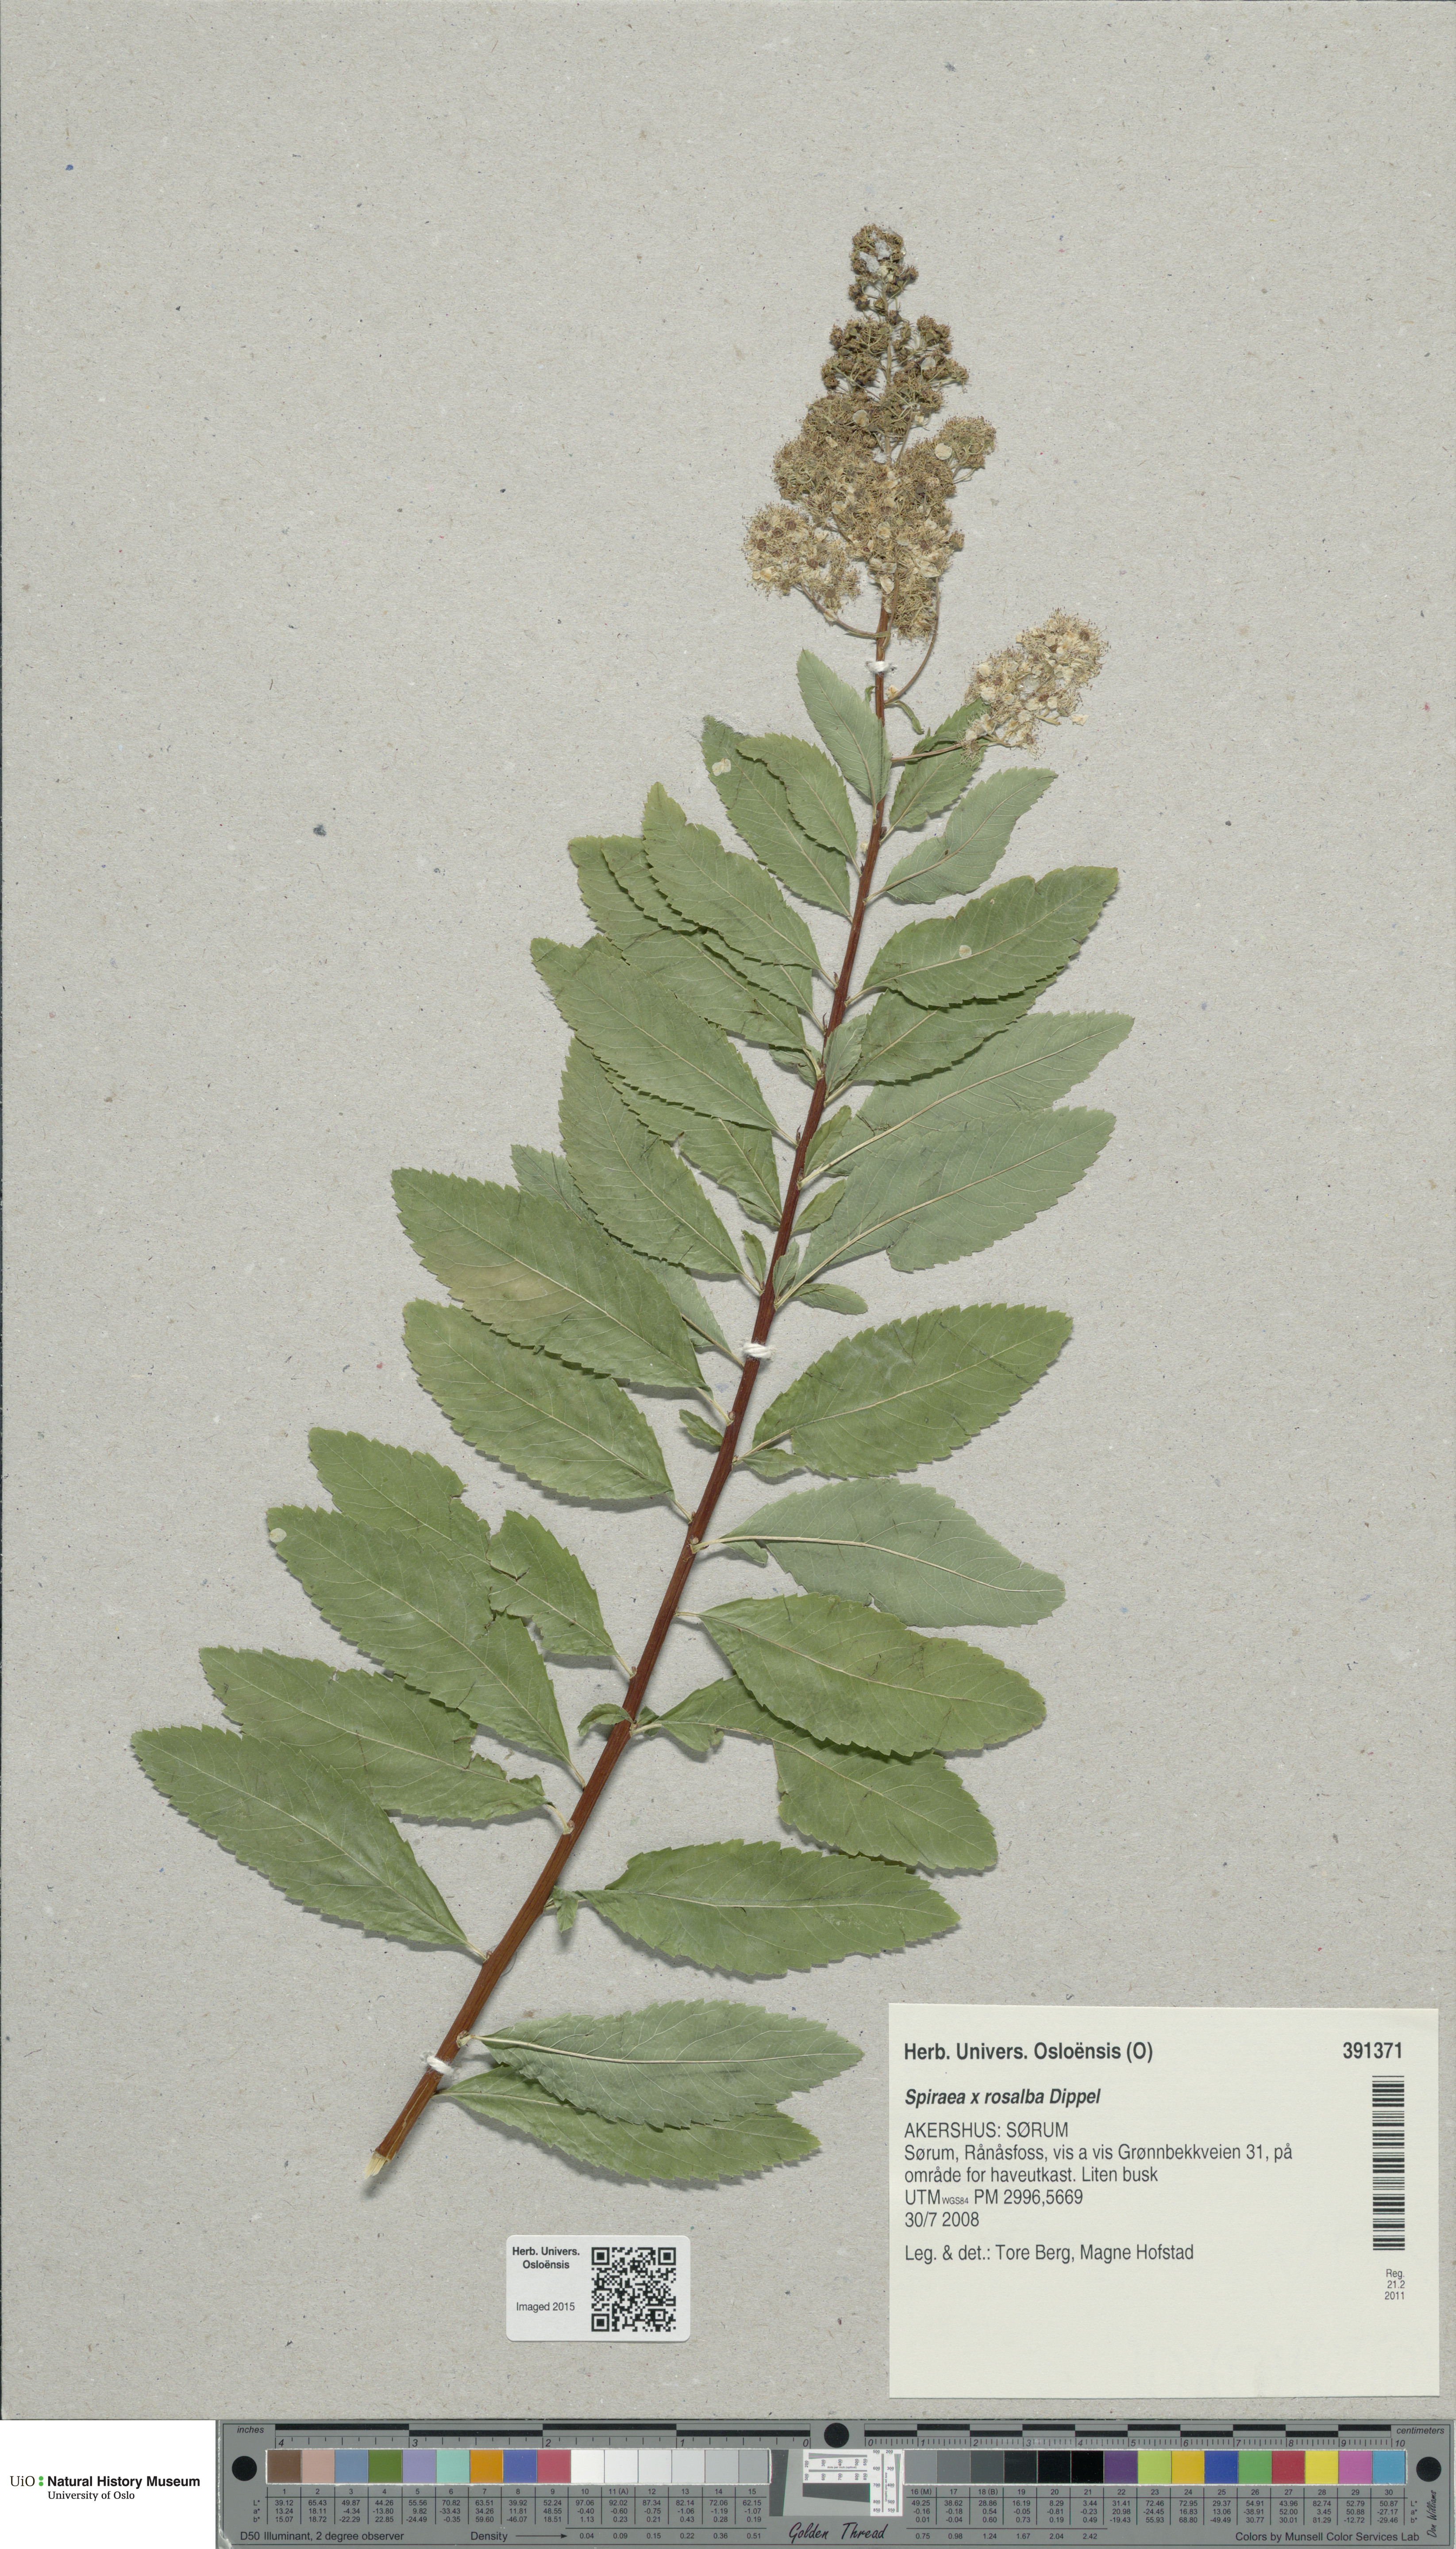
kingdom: Plantae
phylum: Tracheophyta
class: Magnoliopsida
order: Rosales
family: Rosaceae
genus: Spiraea
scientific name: Spiraea rosalba
